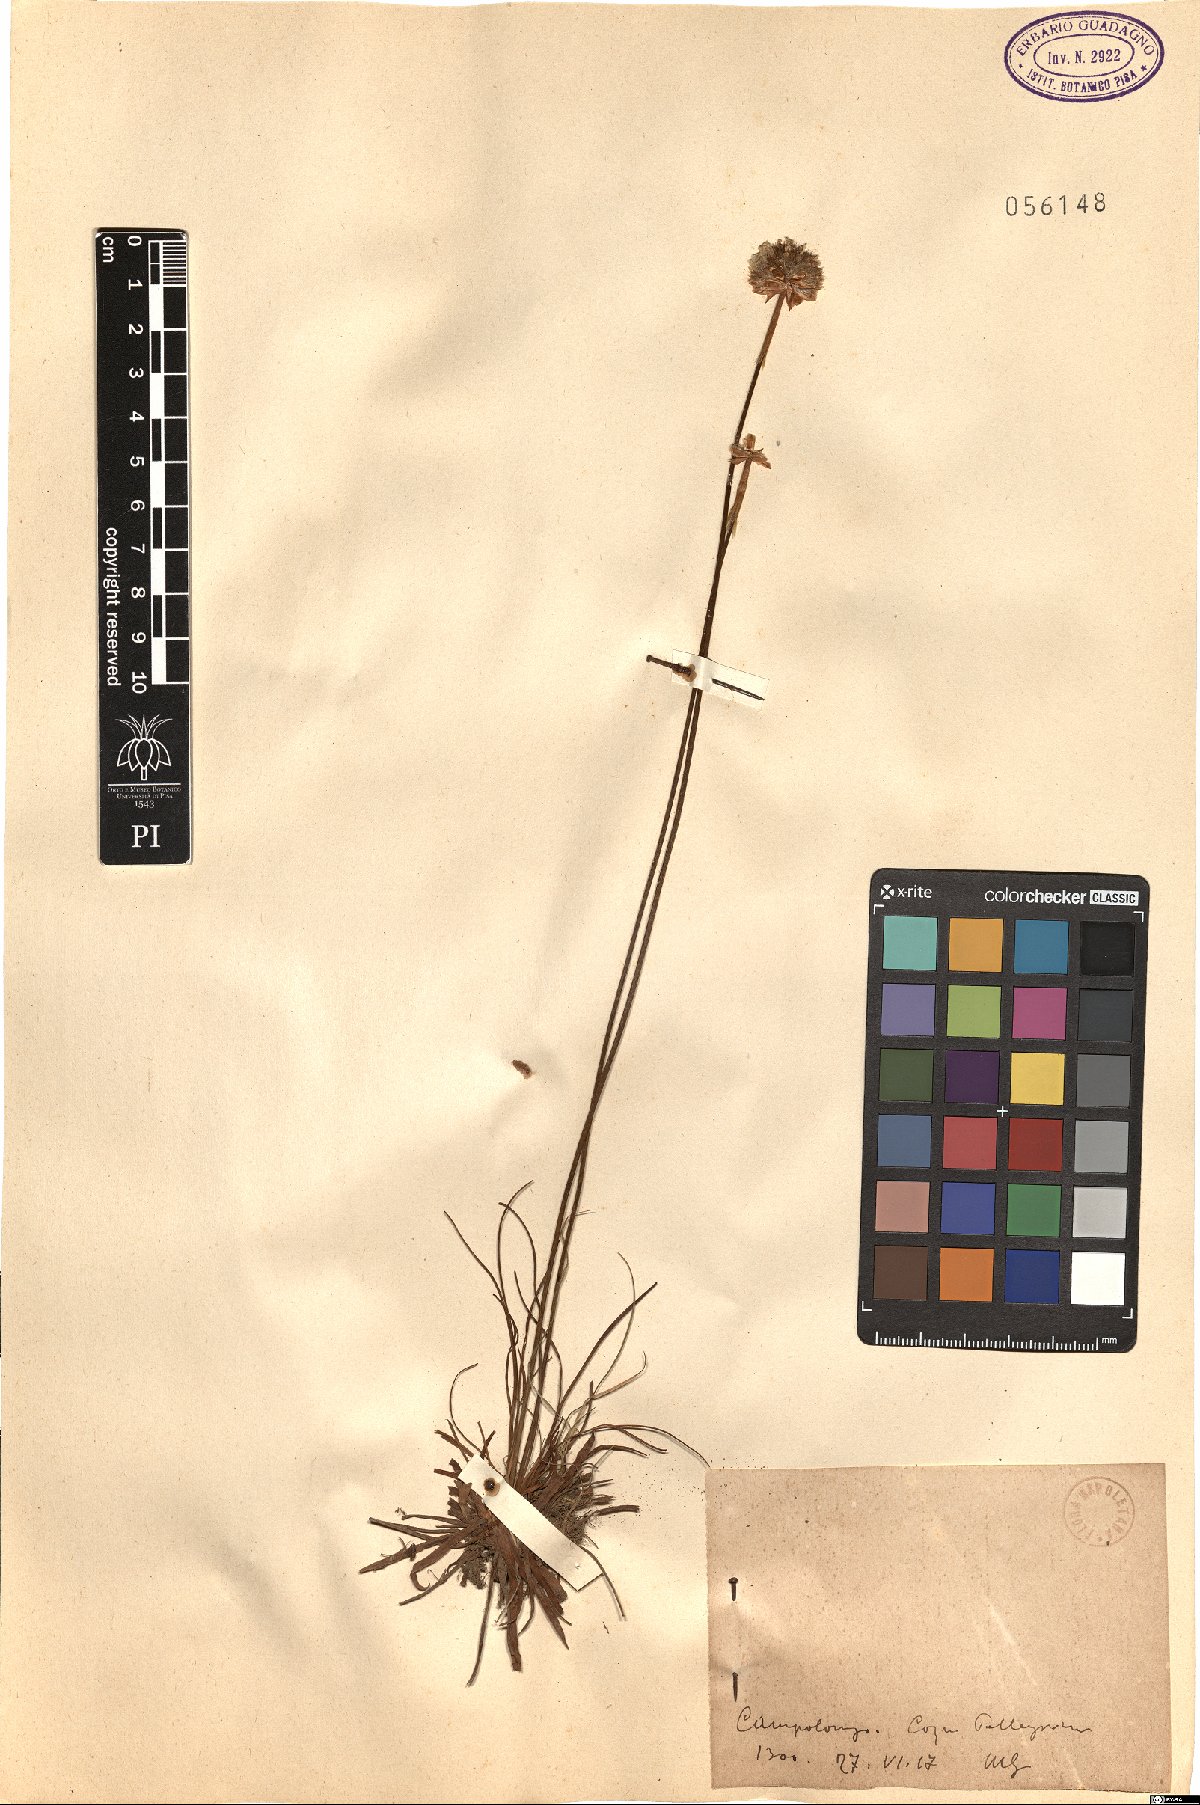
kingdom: Plantae
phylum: Tracheophyta
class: Magnoliopsida
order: Caryophyllales
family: Plumbaginaceae
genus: Armeria
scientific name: Armeria
